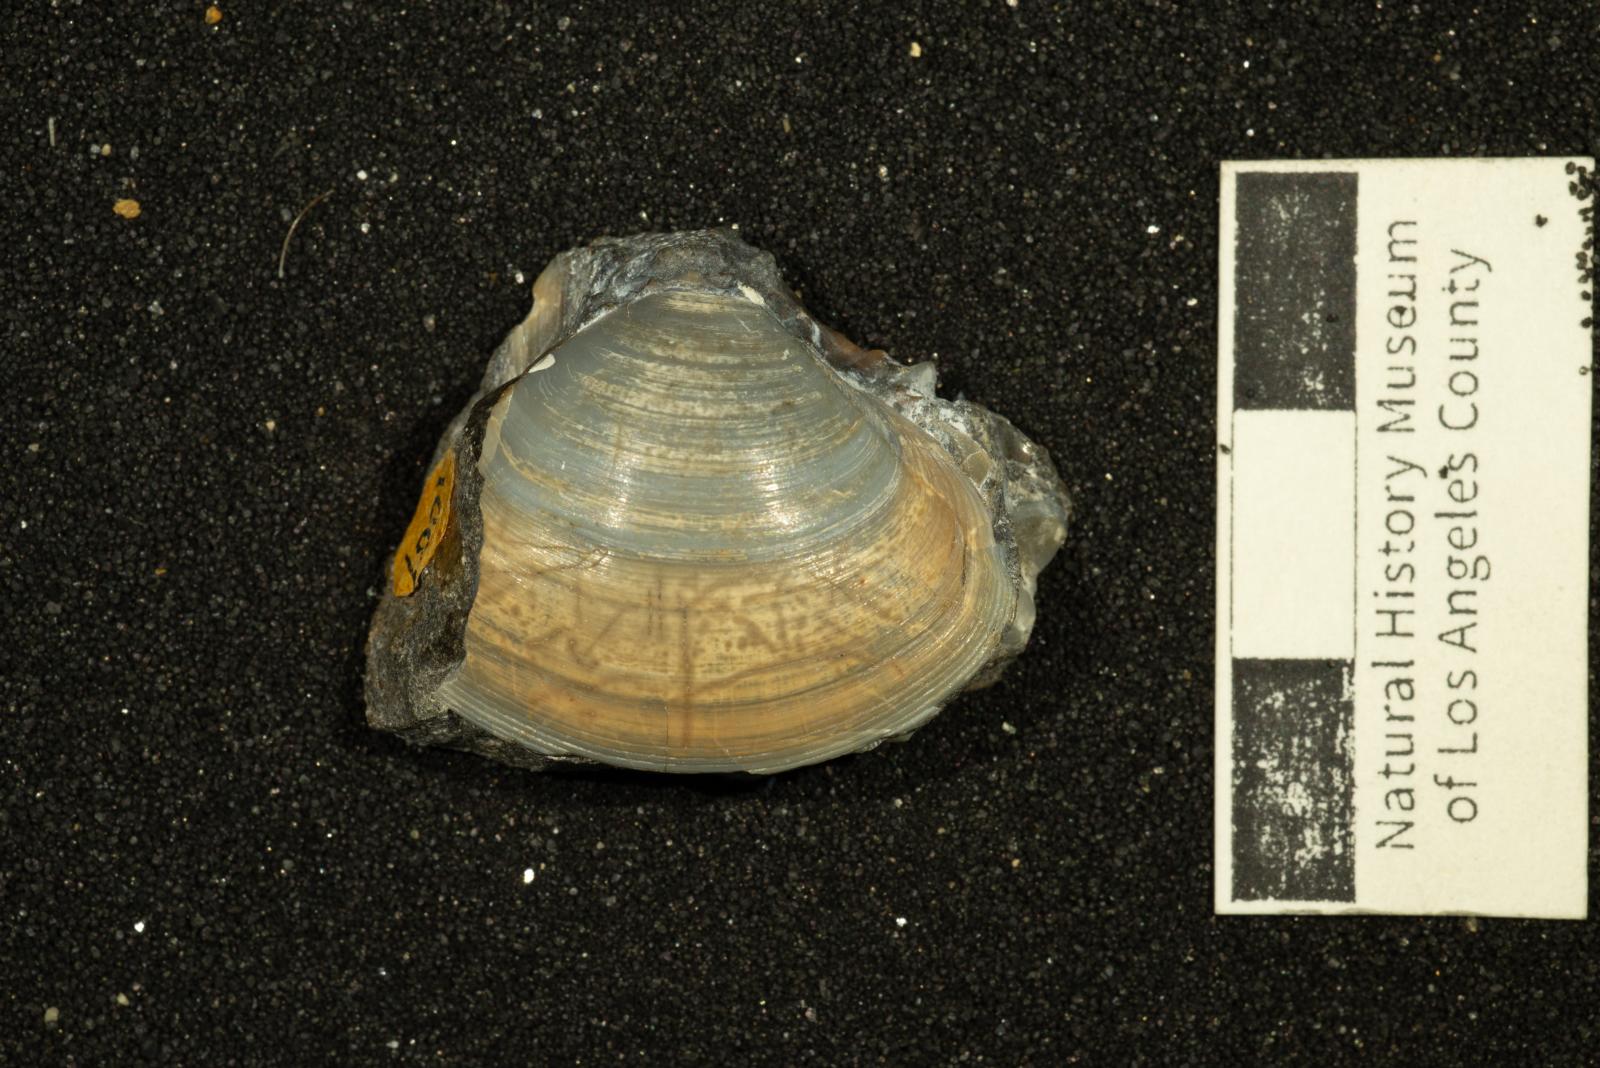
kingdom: Animalia
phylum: Mollusca
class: Bivalvia
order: Venerida
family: Mactridae
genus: Cymbophora
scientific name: Cymbophora Mactra gabbiana
